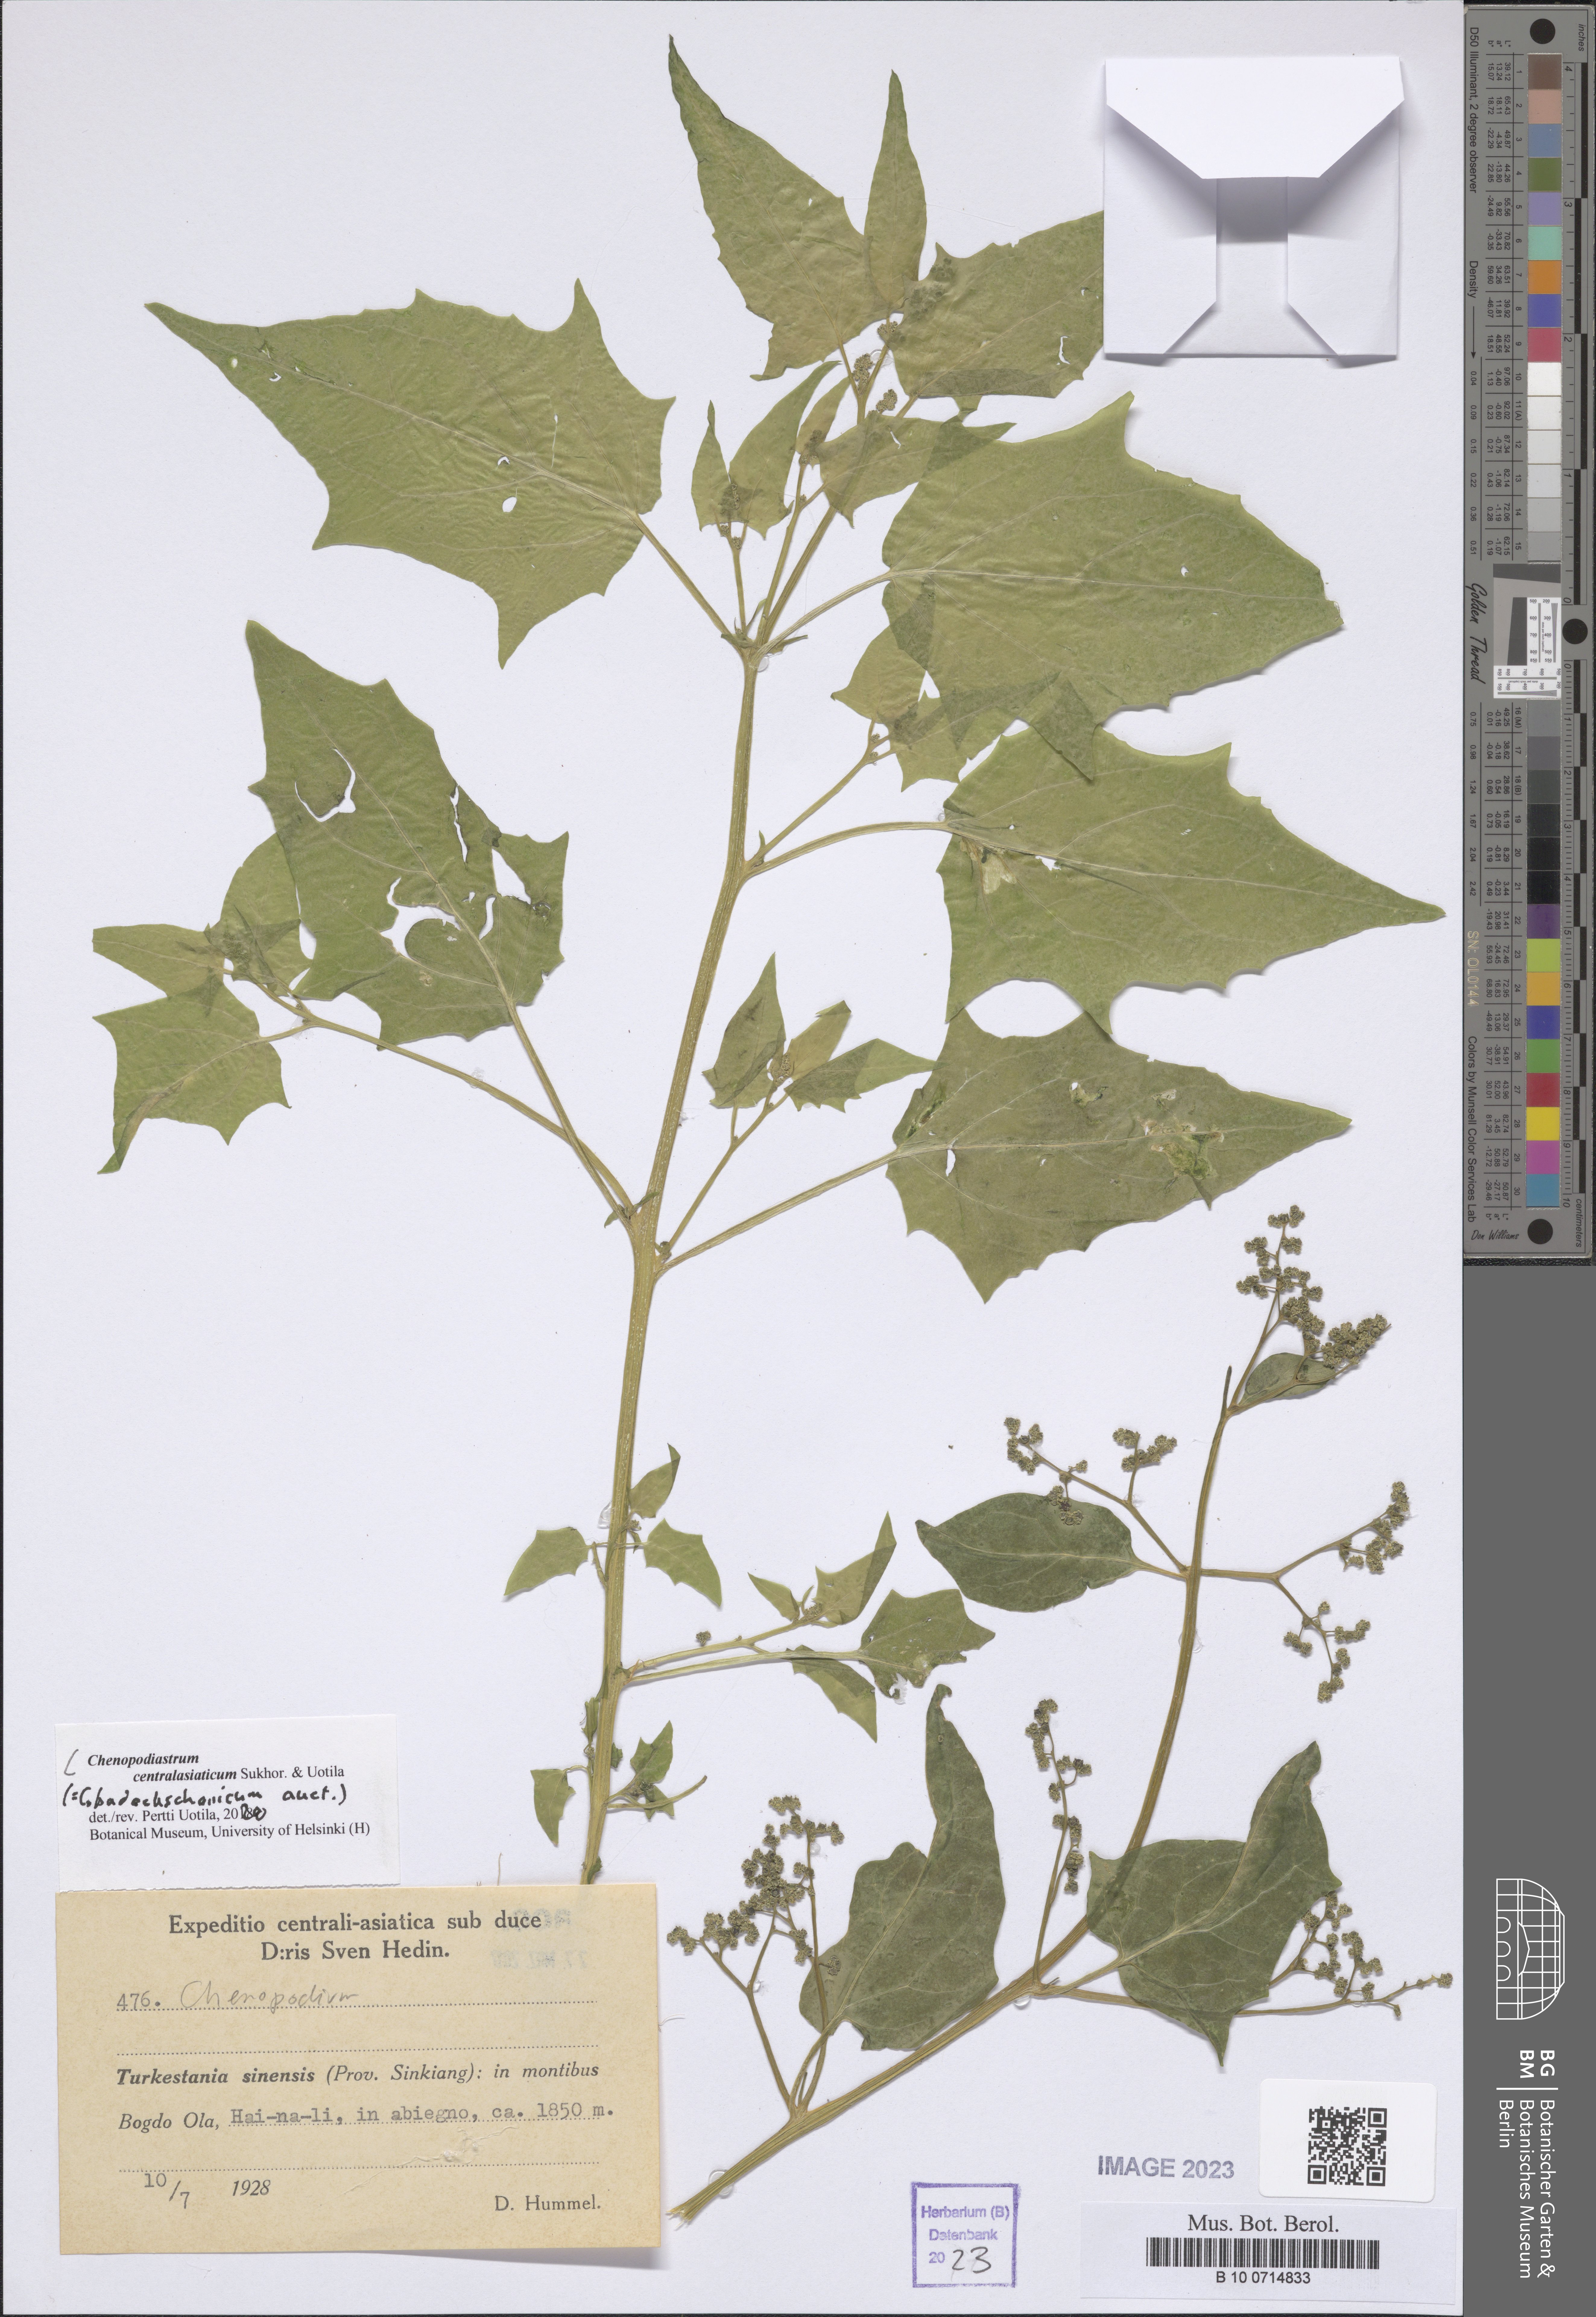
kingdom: Plantae
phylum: Tracheophyta
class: Magnoliopsida
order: Caryophyllales
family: Amaranthaceae
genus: Chenopodiastrum
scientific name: Chenopodiastrum
